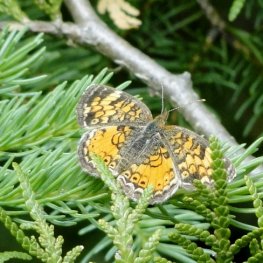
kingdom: Animalia
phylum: Arthropoda
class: Insecta
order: Lepidoptera
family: Nymphalidae
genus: Phyciodes
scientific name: Phyciodes tharos
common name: Northern Crescent
